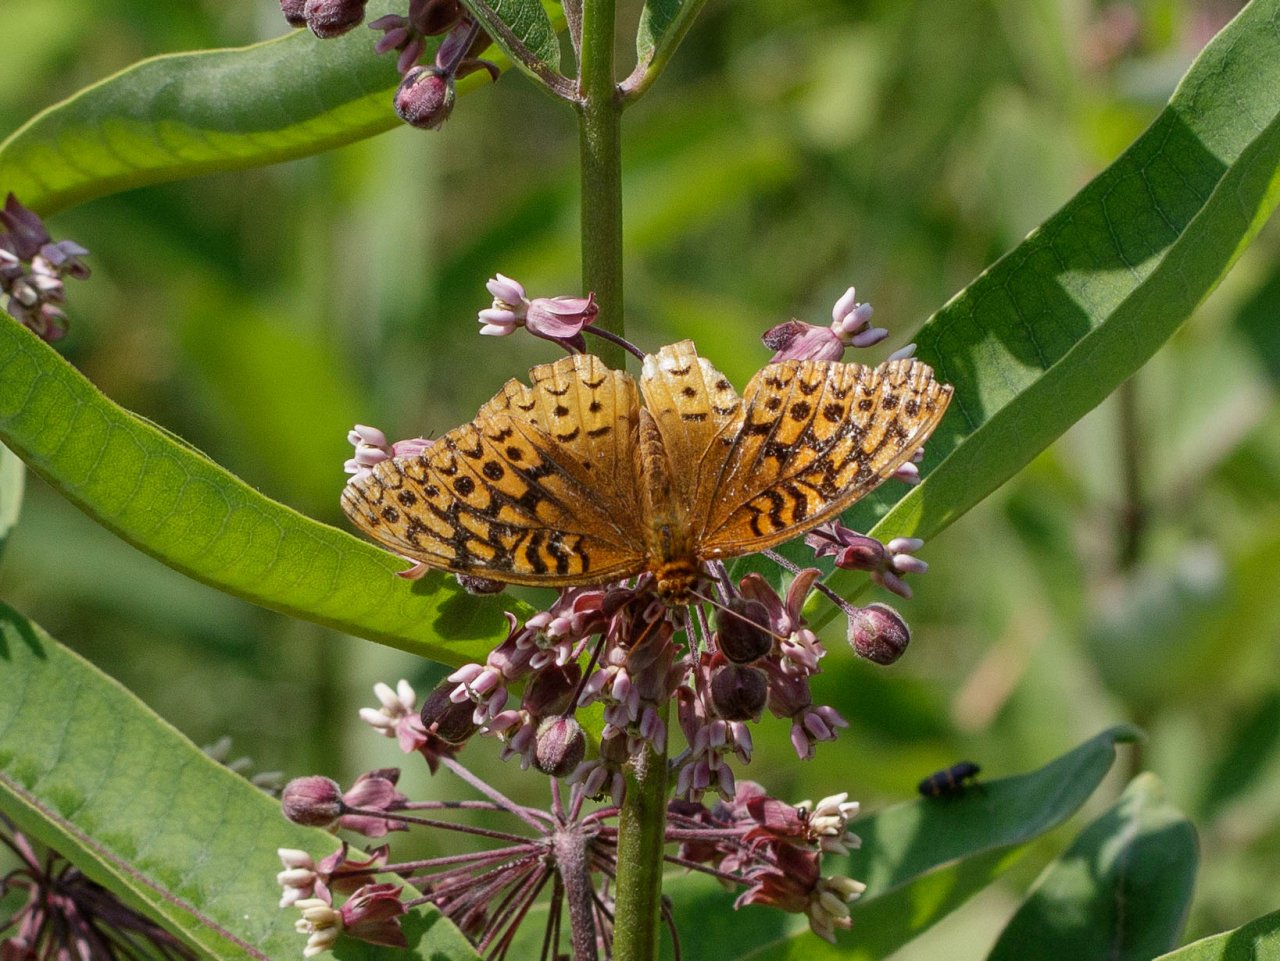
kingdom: Animalia
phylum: Arthropoda
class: Insecta
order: Lepidoptera
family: Nymphalidae
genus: Speyeria
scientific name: Speyeria cybele
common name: Great Spangled Fritillary
